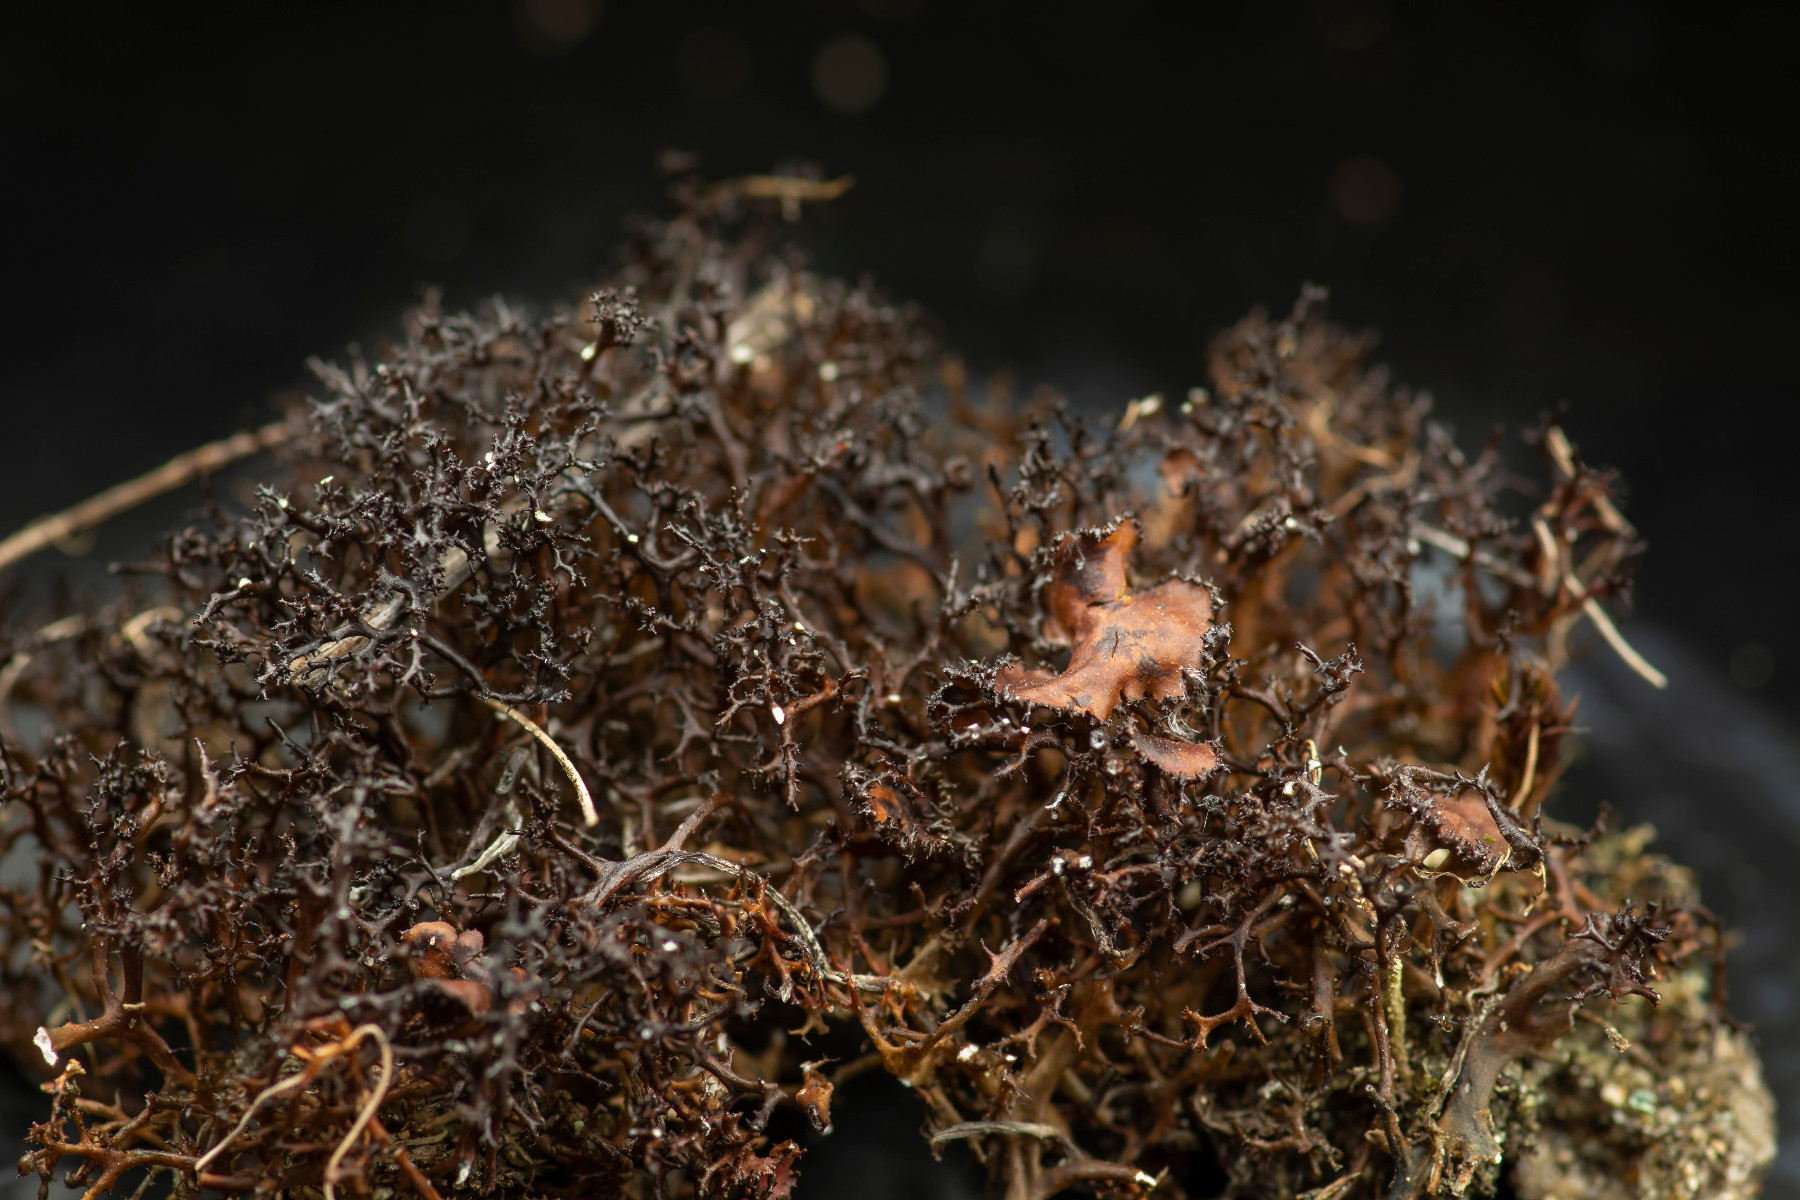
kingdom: Fungi
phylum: Ascomycota
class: Lecanoromycetes
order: Lecanorales
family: Parmeliaceae
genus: Cetraria
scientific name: Cetraria muricata
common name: tue-tjørnelav
